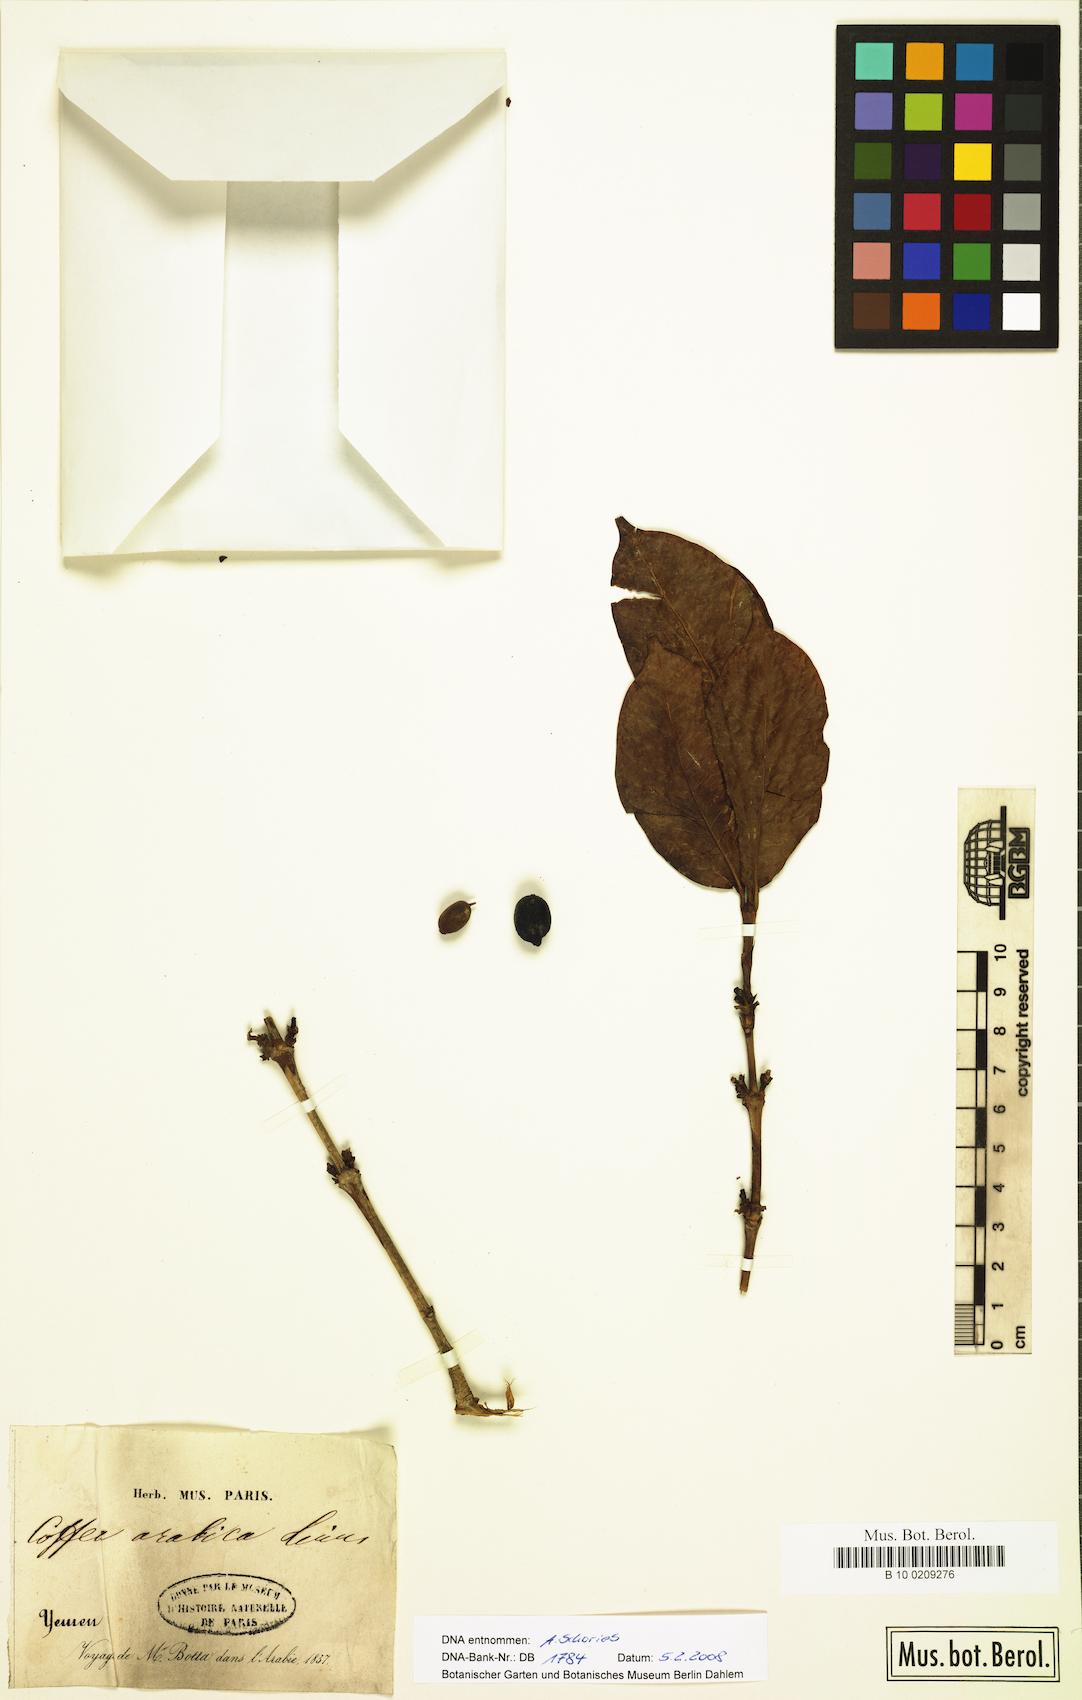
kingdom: Plantae
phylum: Tracheophyta
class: Magnoliopsida
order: Gentianales
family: Rubiaceae
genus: Coffea
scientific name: Coffea arabica
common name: Coffee
